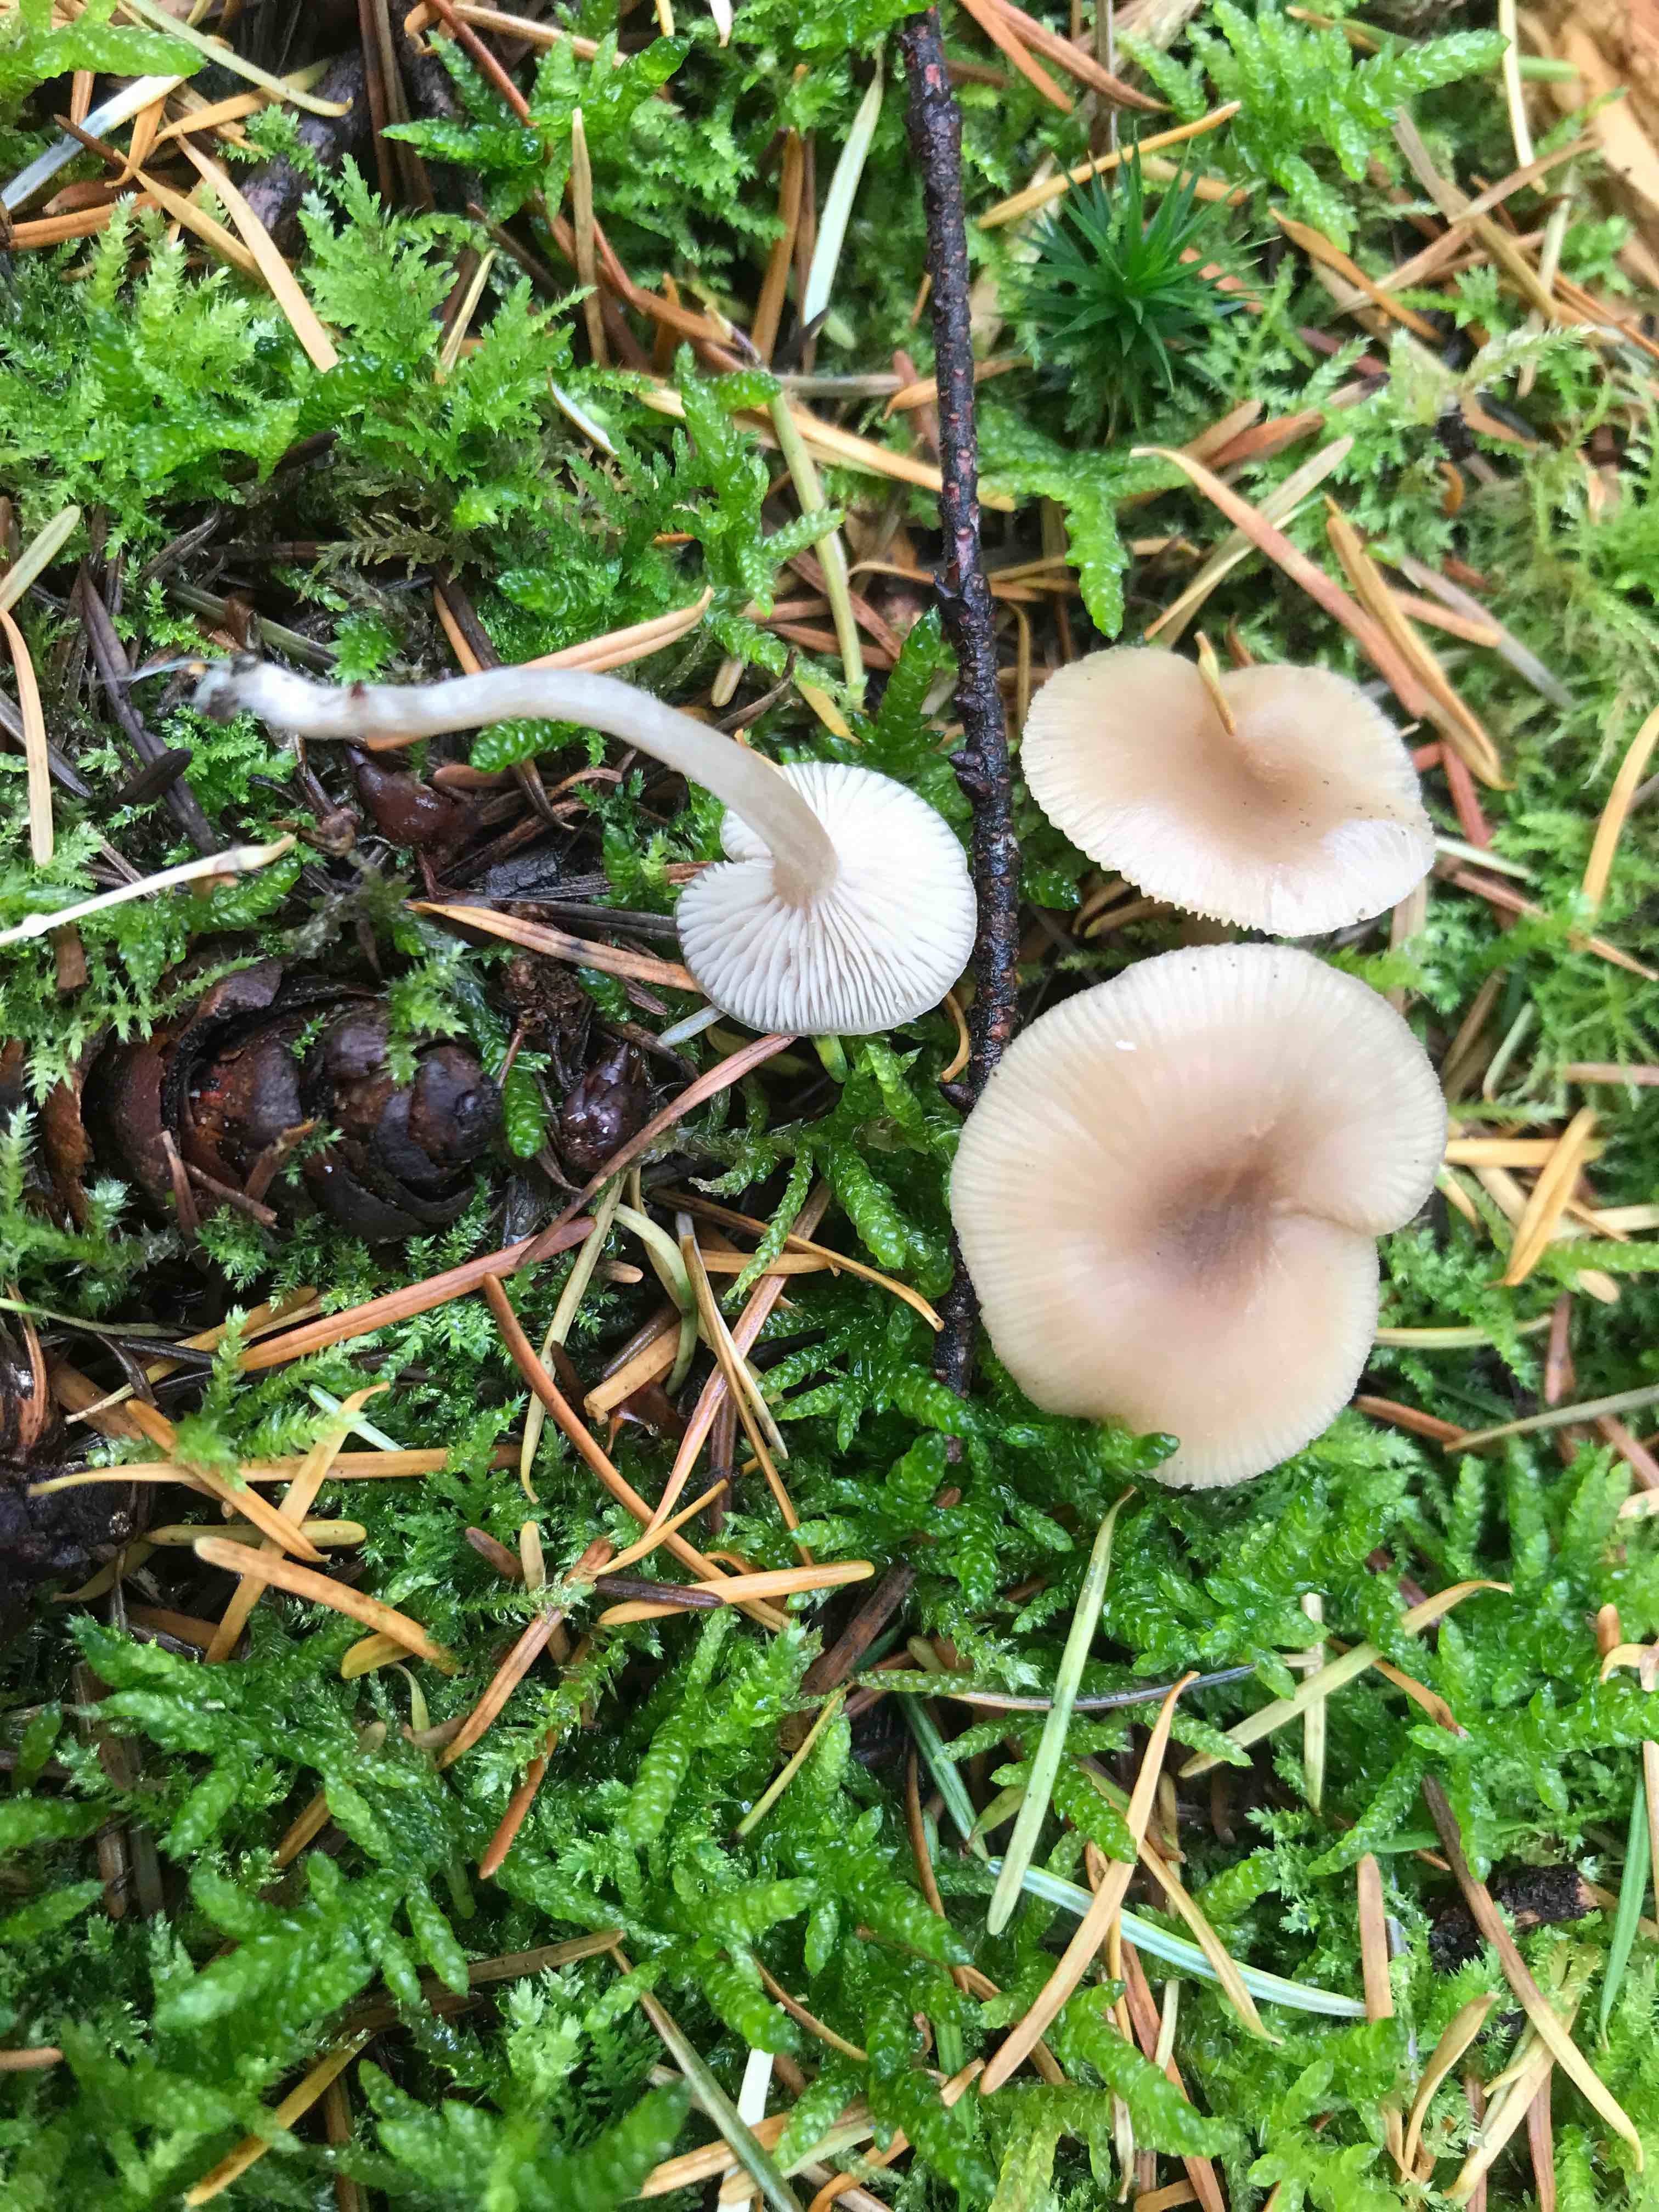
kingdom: Fungi
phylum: Basidiomycota
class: Agaricomycetes
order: Agaricales
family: Tricholomataceae
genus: Clitocybe
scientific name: Clitocybe fragrans
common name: vellugtende tragthat
